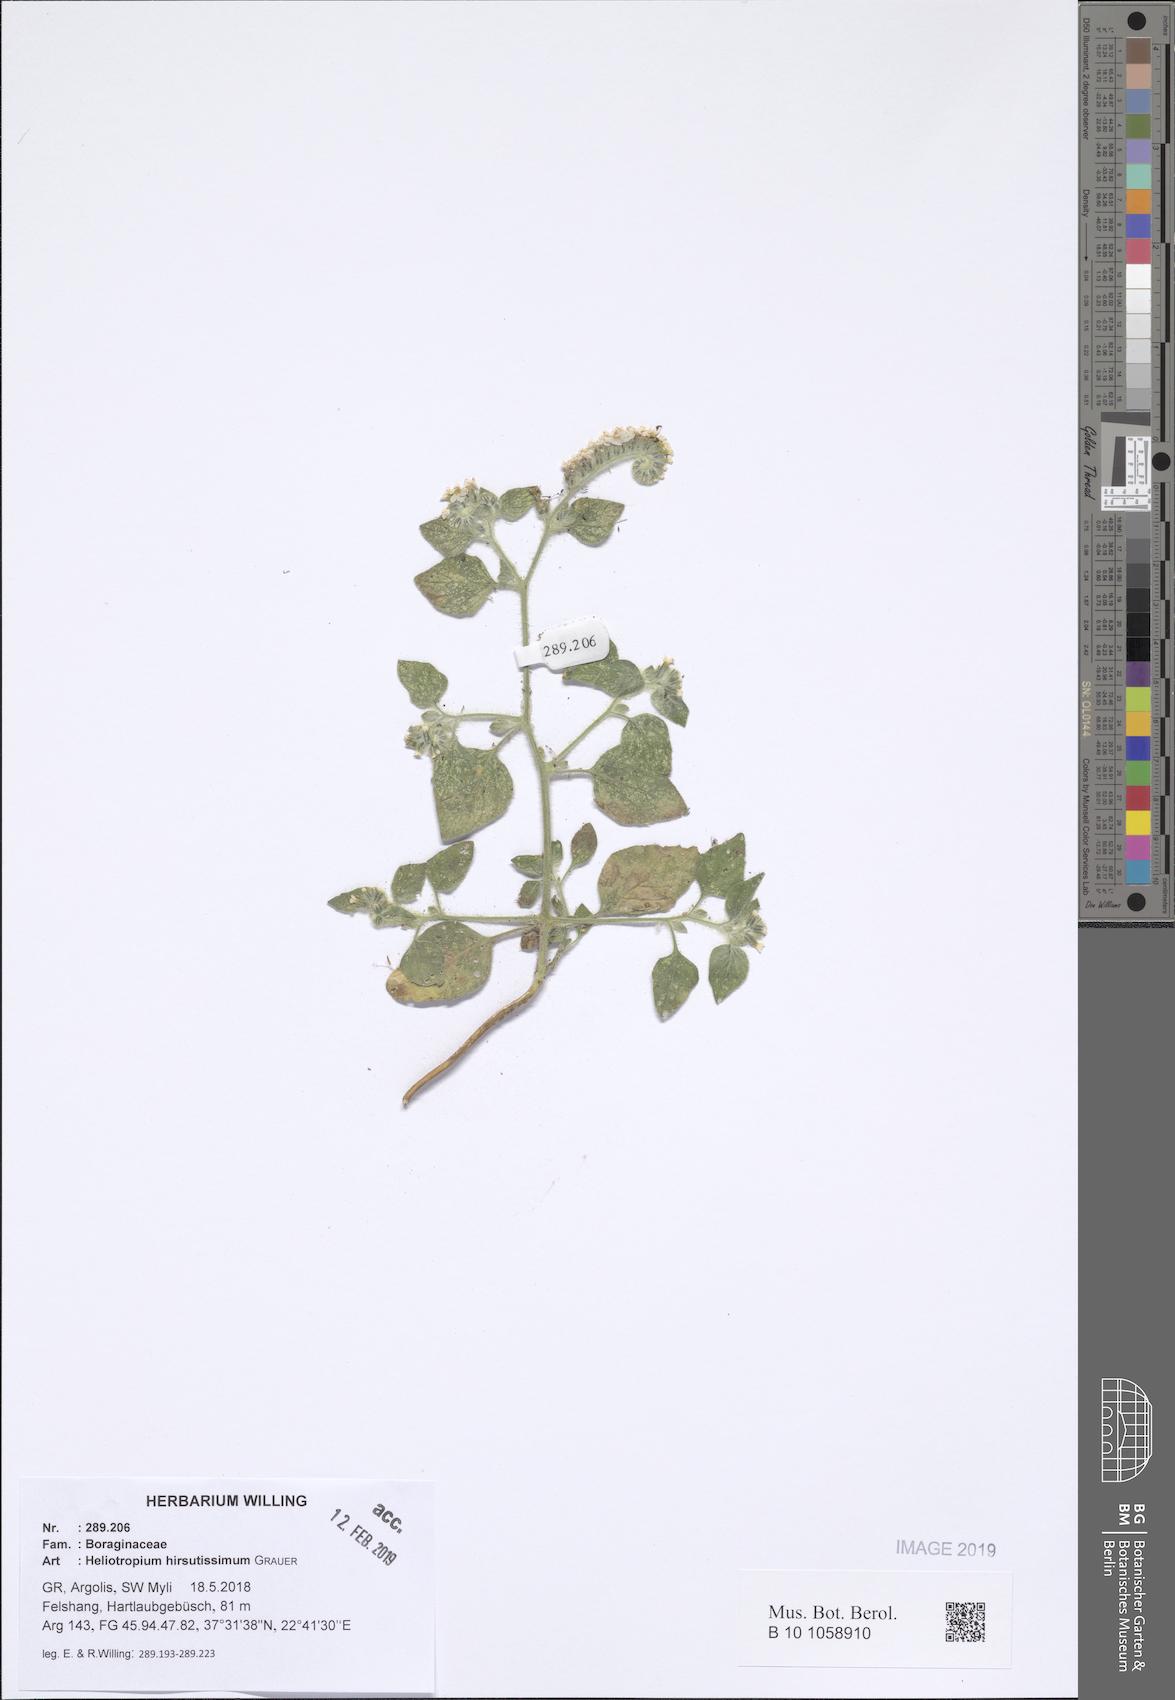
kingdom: Plantae
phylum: Tracheophyta
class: Magnoliopsida
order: Boraginales
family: Heliotropiaceae
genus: Heliotropium
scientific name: Heliotropium hirsutissimum
